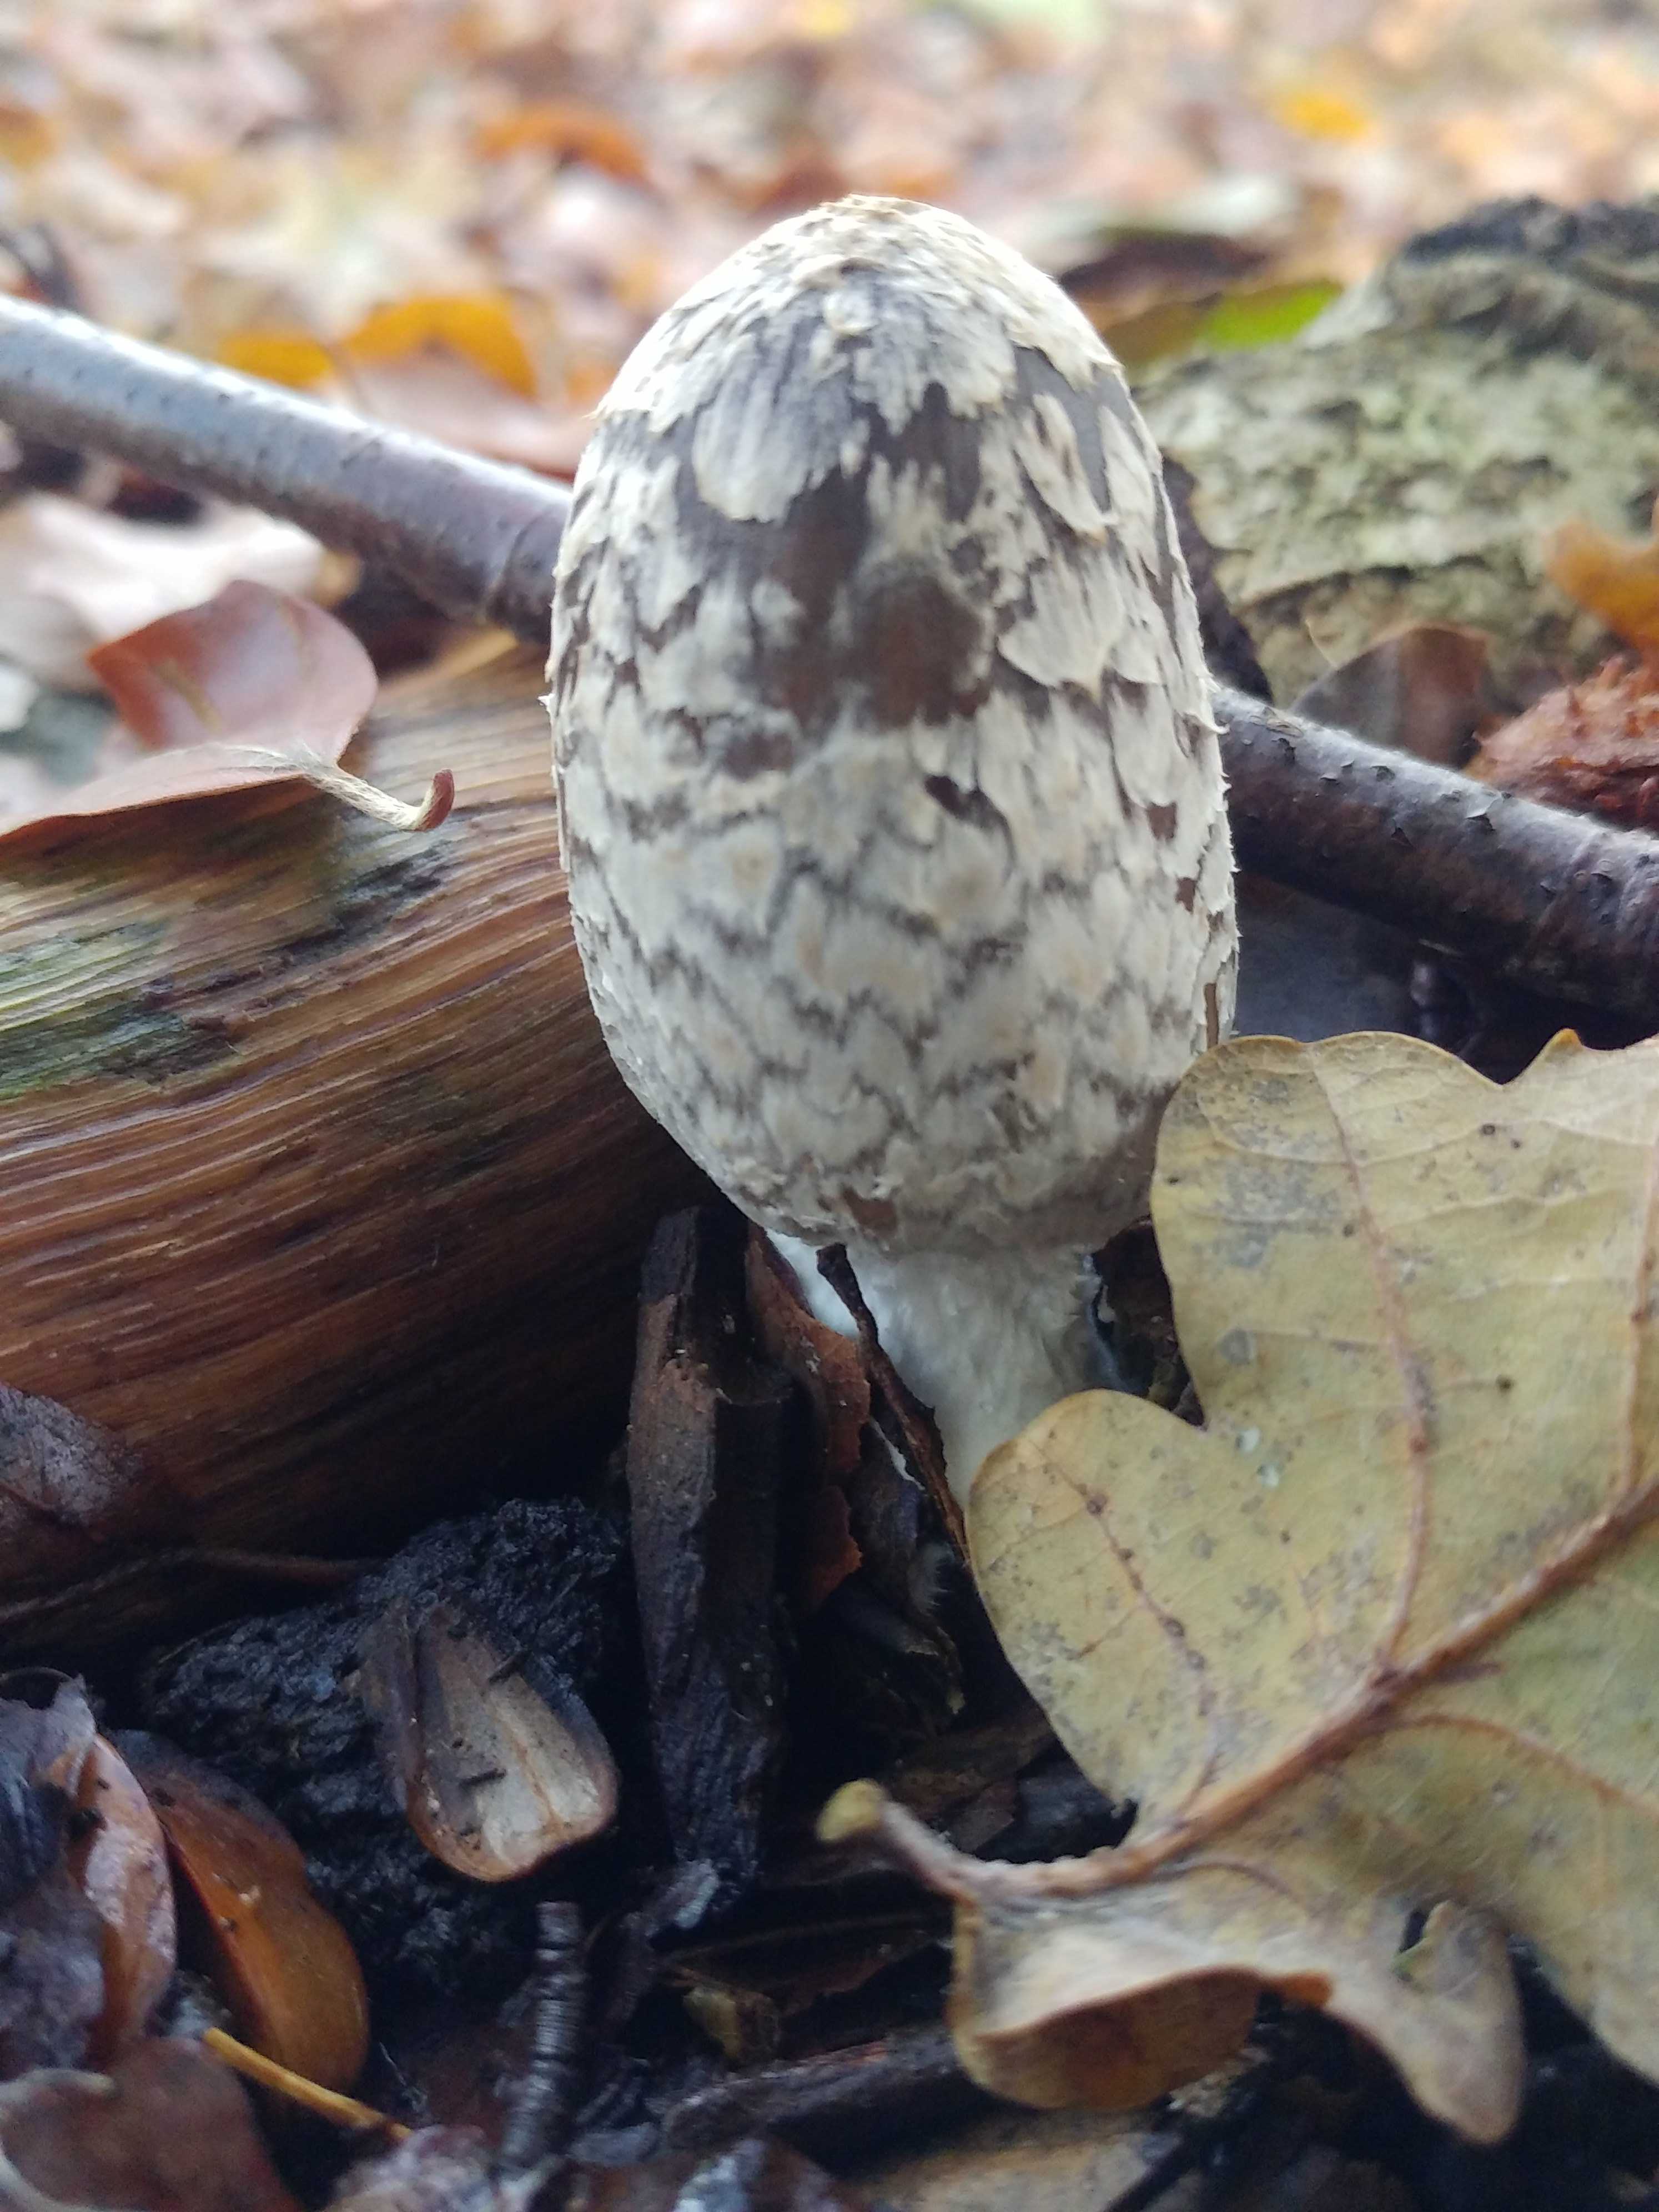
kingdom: Fungi
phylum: Basidiomycota
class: Agaricomycetes
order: Agaricales
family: Psathyrellaceae
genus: Coprinopsis
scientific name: Coprinopsis picacea
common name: skade-blækhat
